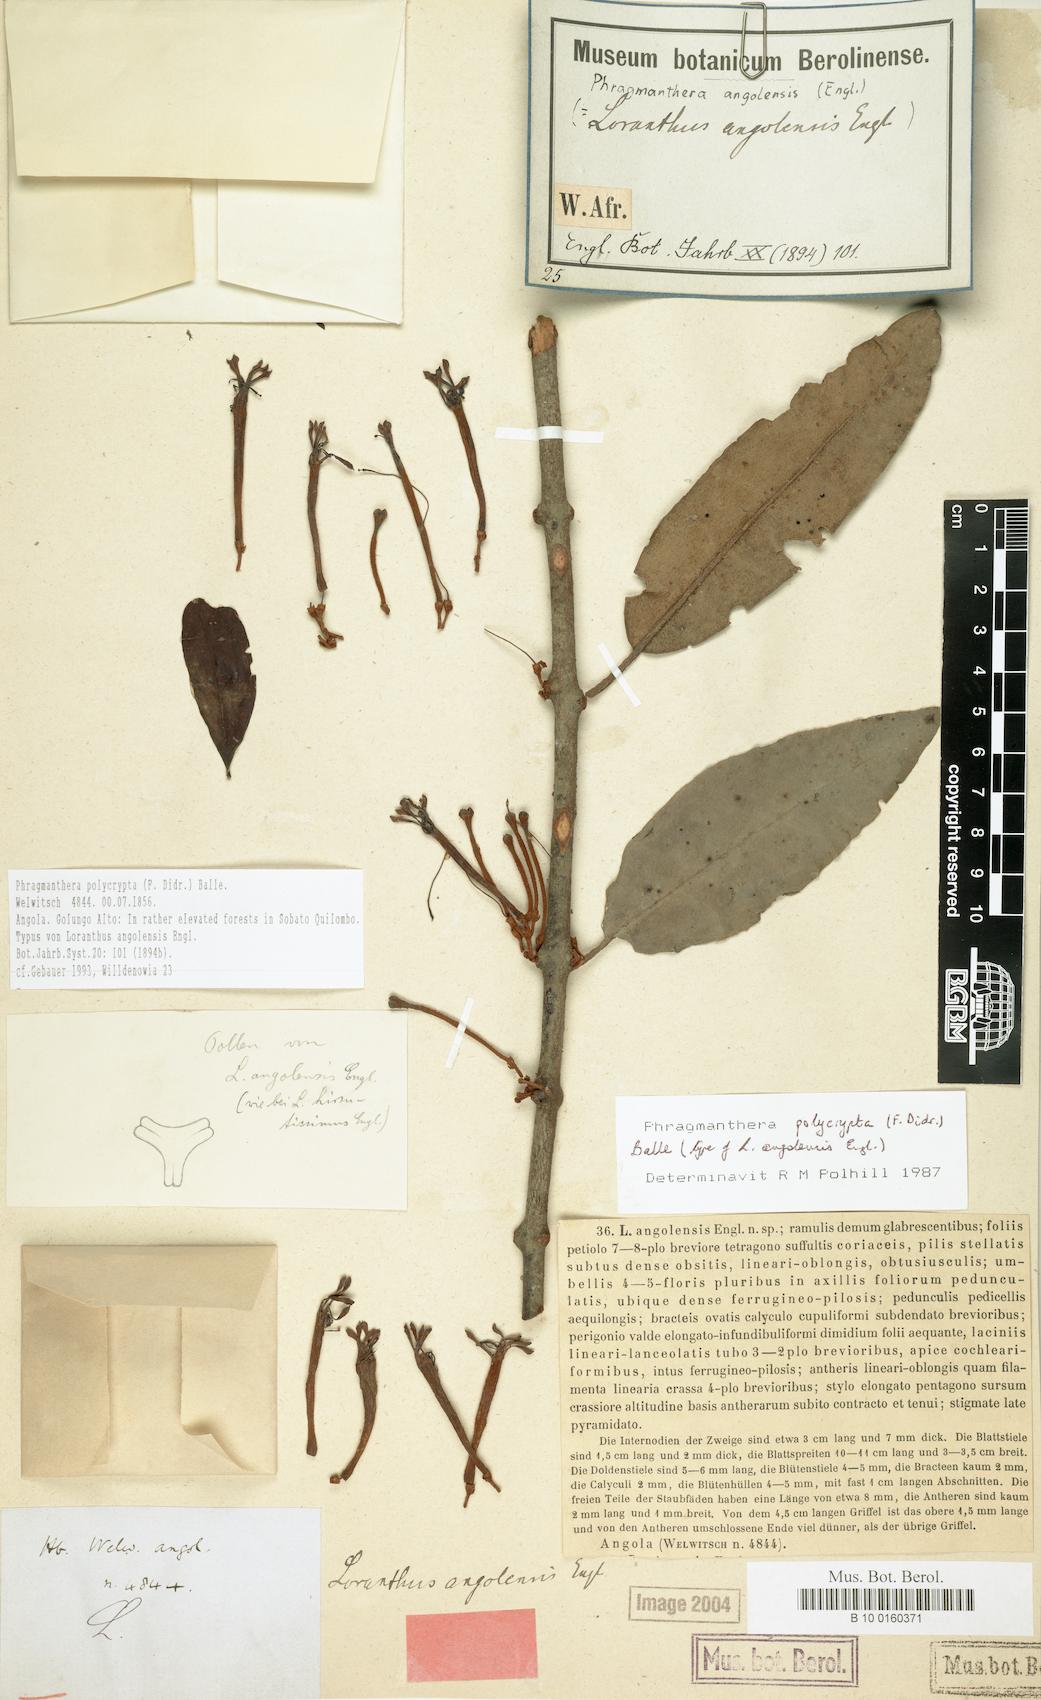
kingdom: Plantae
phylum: Tracheophyta
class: Magnoliopsida
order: Santalales
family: Loranthaceae
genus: Phragmanthera
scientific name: Phragmanthera polycrypta
